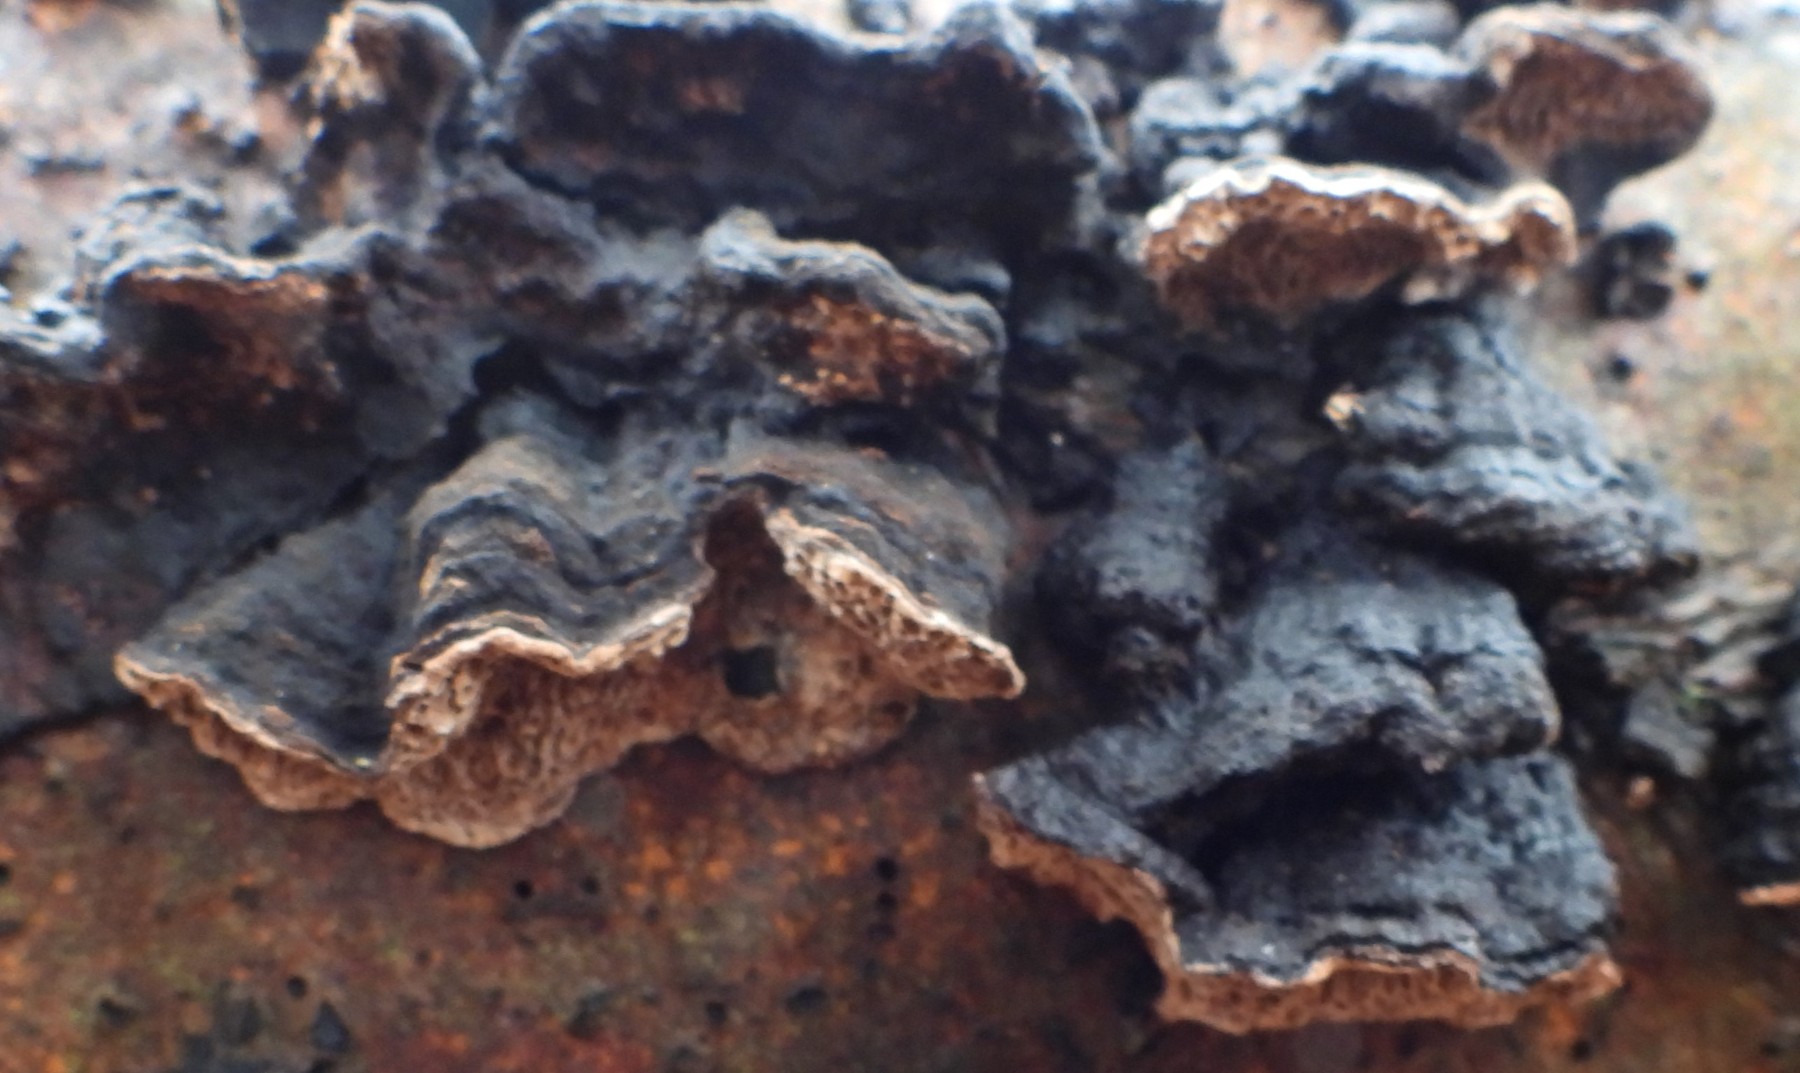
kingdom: Fungi
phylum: Basidiomycota
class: Agaricomycetes
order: Polyporales
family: Polyporaceae
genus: Podofomes
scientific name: Podofomes mollis
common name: blød begporesvamp
